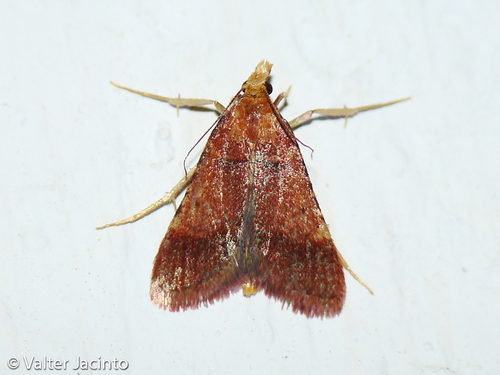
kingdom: Animalia
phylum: Arthropoda
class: Insecta
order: Lepidoptera
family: Pyralidae
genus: Stemmatophora
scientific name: Stemmatophora brunnealis
